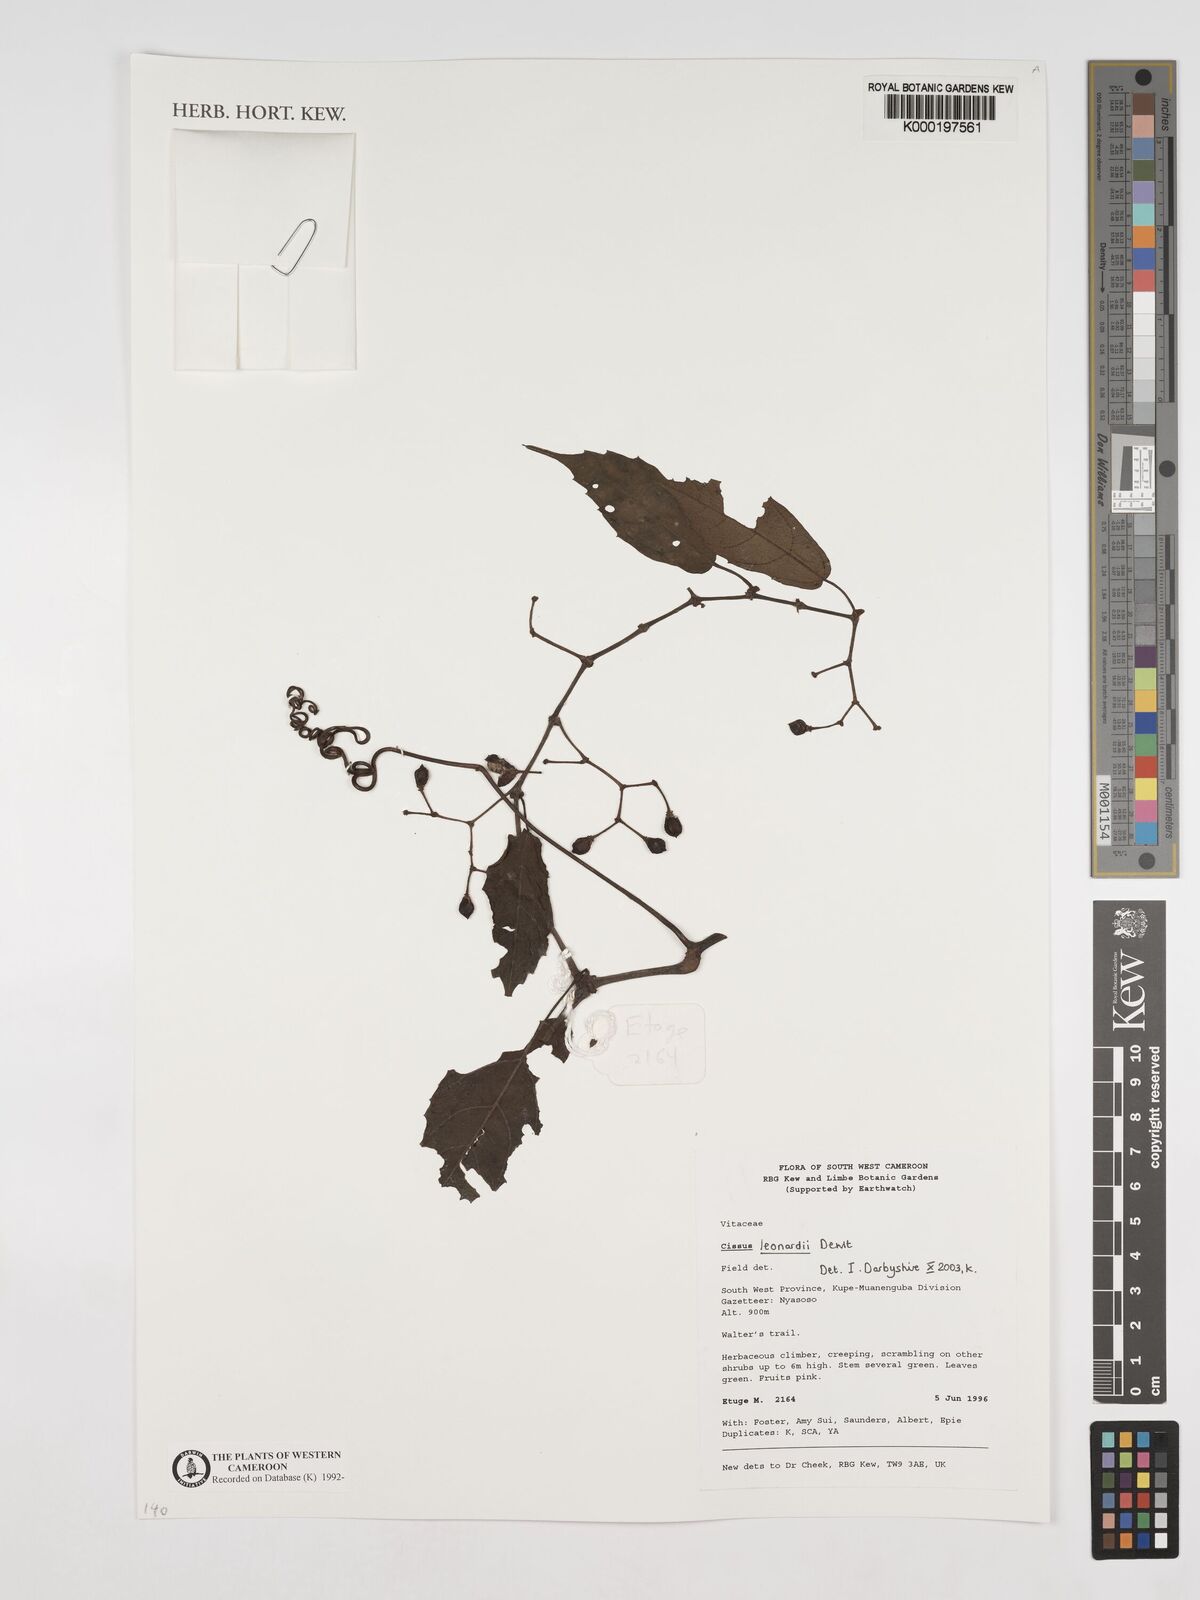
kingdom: Plantae
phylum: Tracheophyta
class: Magnoliopsida
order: Vitales
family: Vitaceae
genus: Cissus
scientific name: Cissus leonardii
